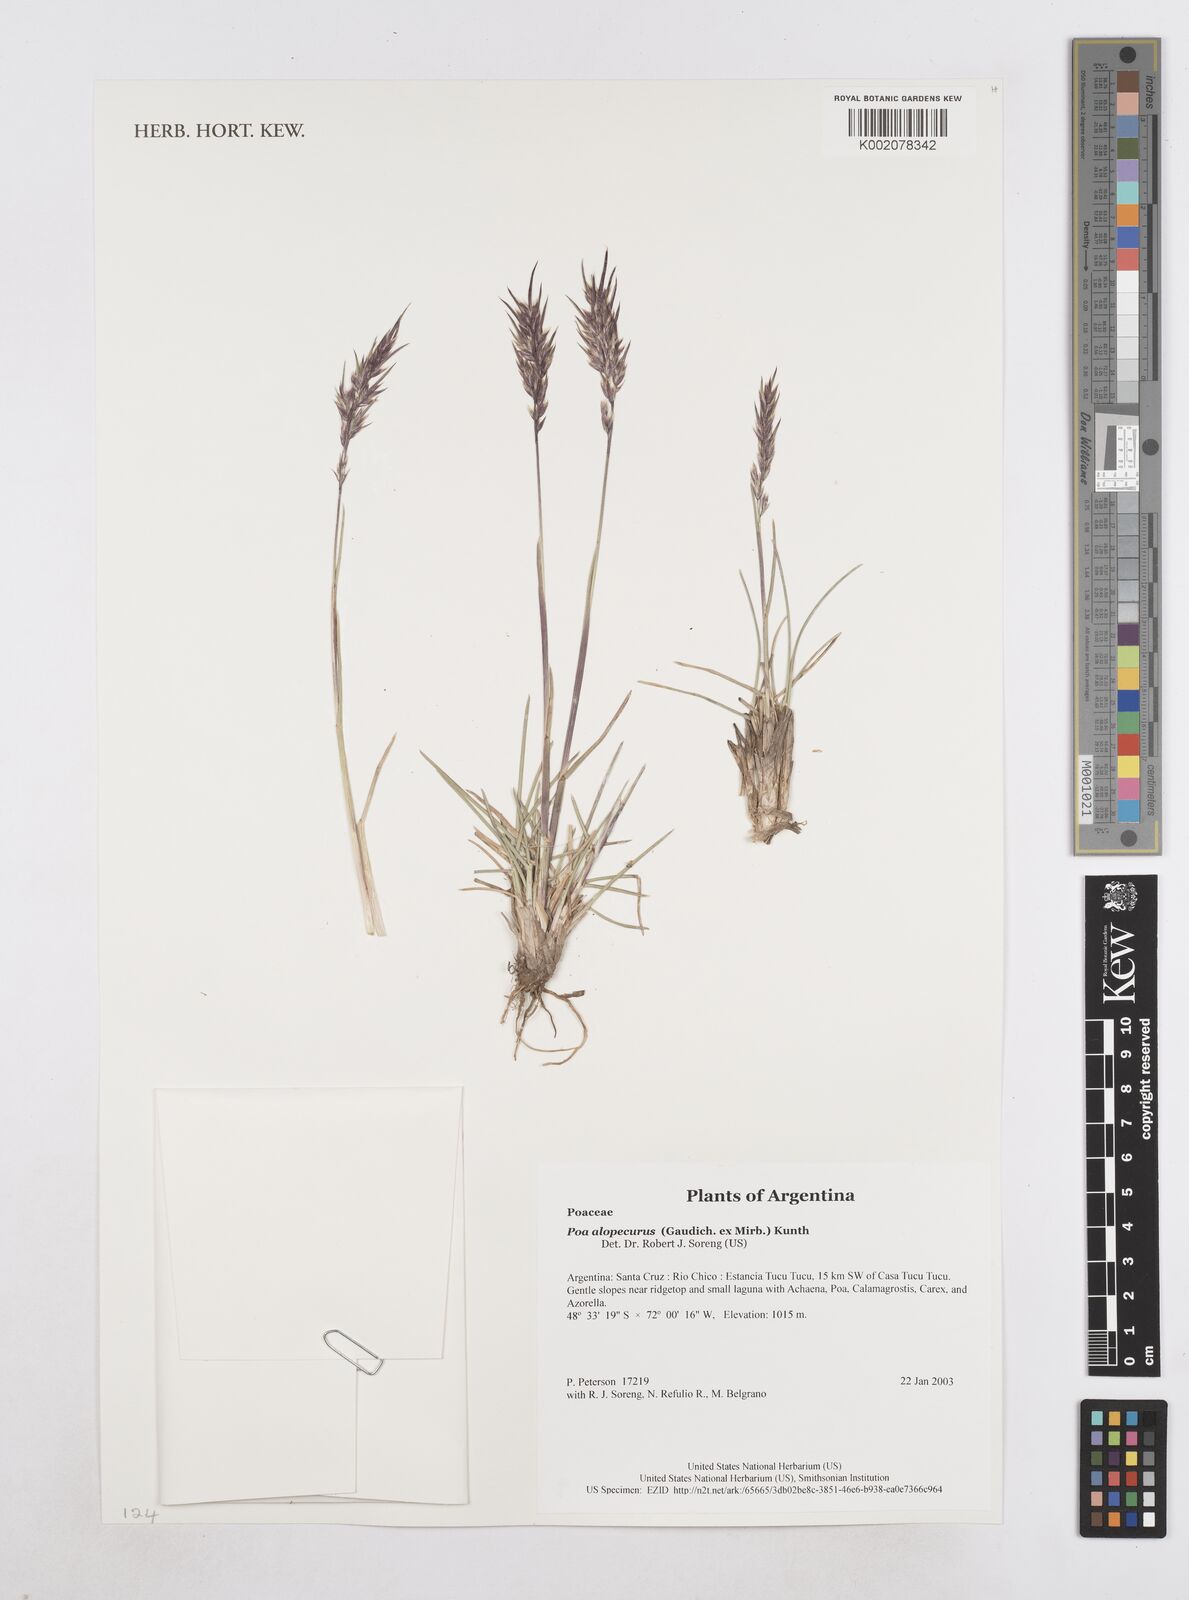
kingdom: Plantae
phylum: Tracheophyta
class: Liliopsida
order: Poales
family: Poaceae
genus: Poa
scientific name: Poa alopecurus
